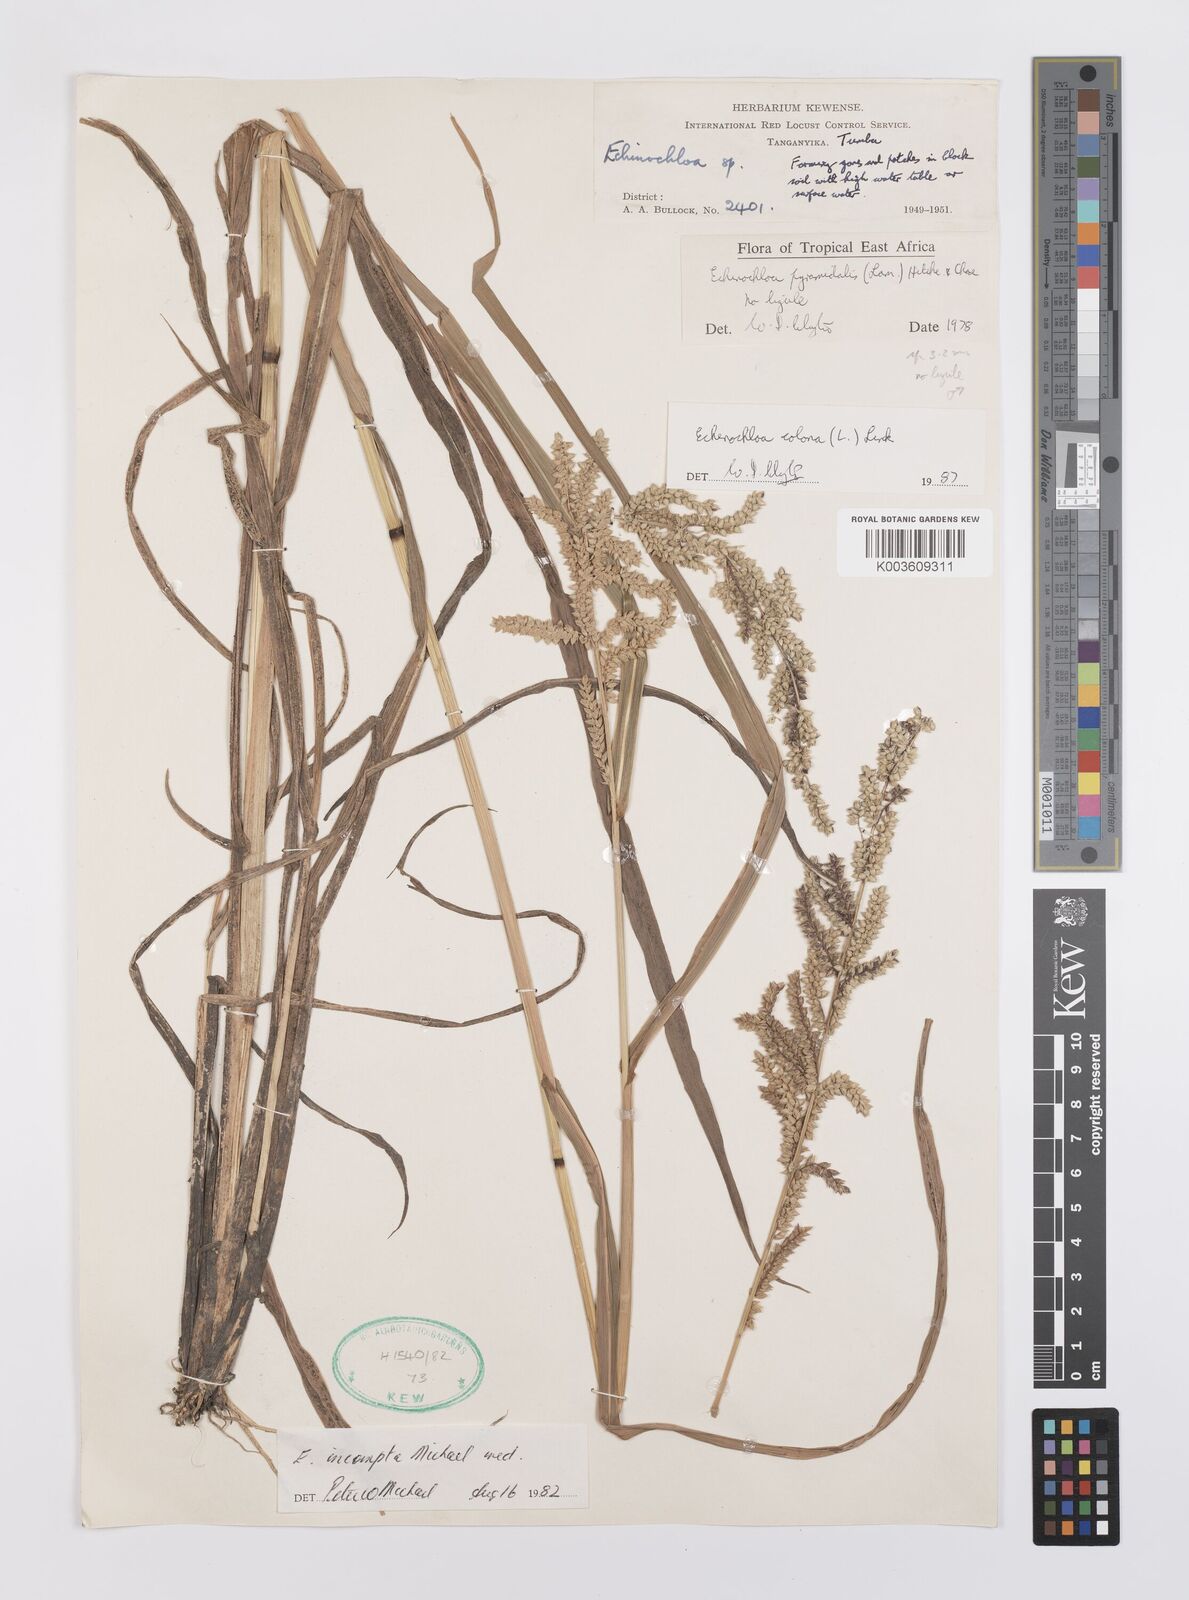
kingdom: Plantae
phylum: Tracheophyta
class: Liliopsida
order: Poales
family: Poaceae
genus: Echinochloa
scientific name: Echinochloa colonum
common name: Jungle rice
